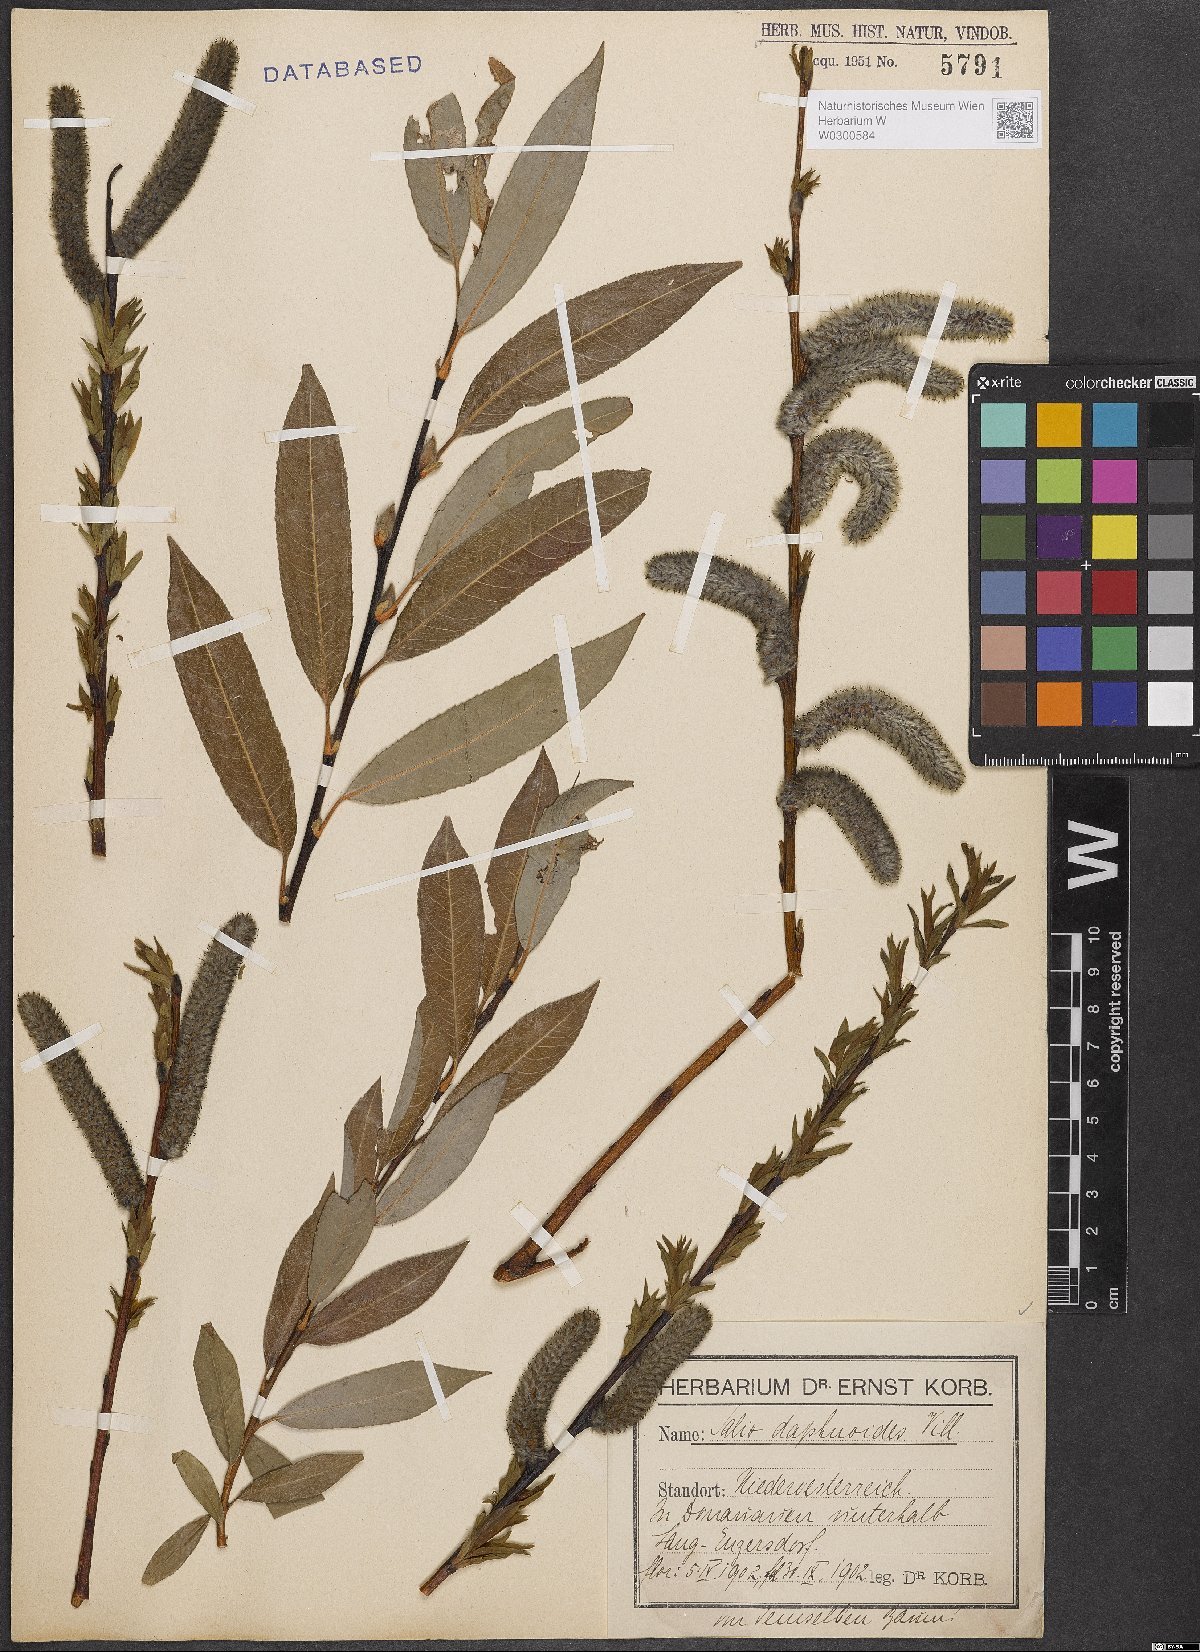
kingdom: Plantae
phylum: Tracheophyta
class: Magnoliopsida
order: Malpighiales
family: Salicaceae
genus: Salix
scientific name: Salix daphnoides
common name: European violet-willow
